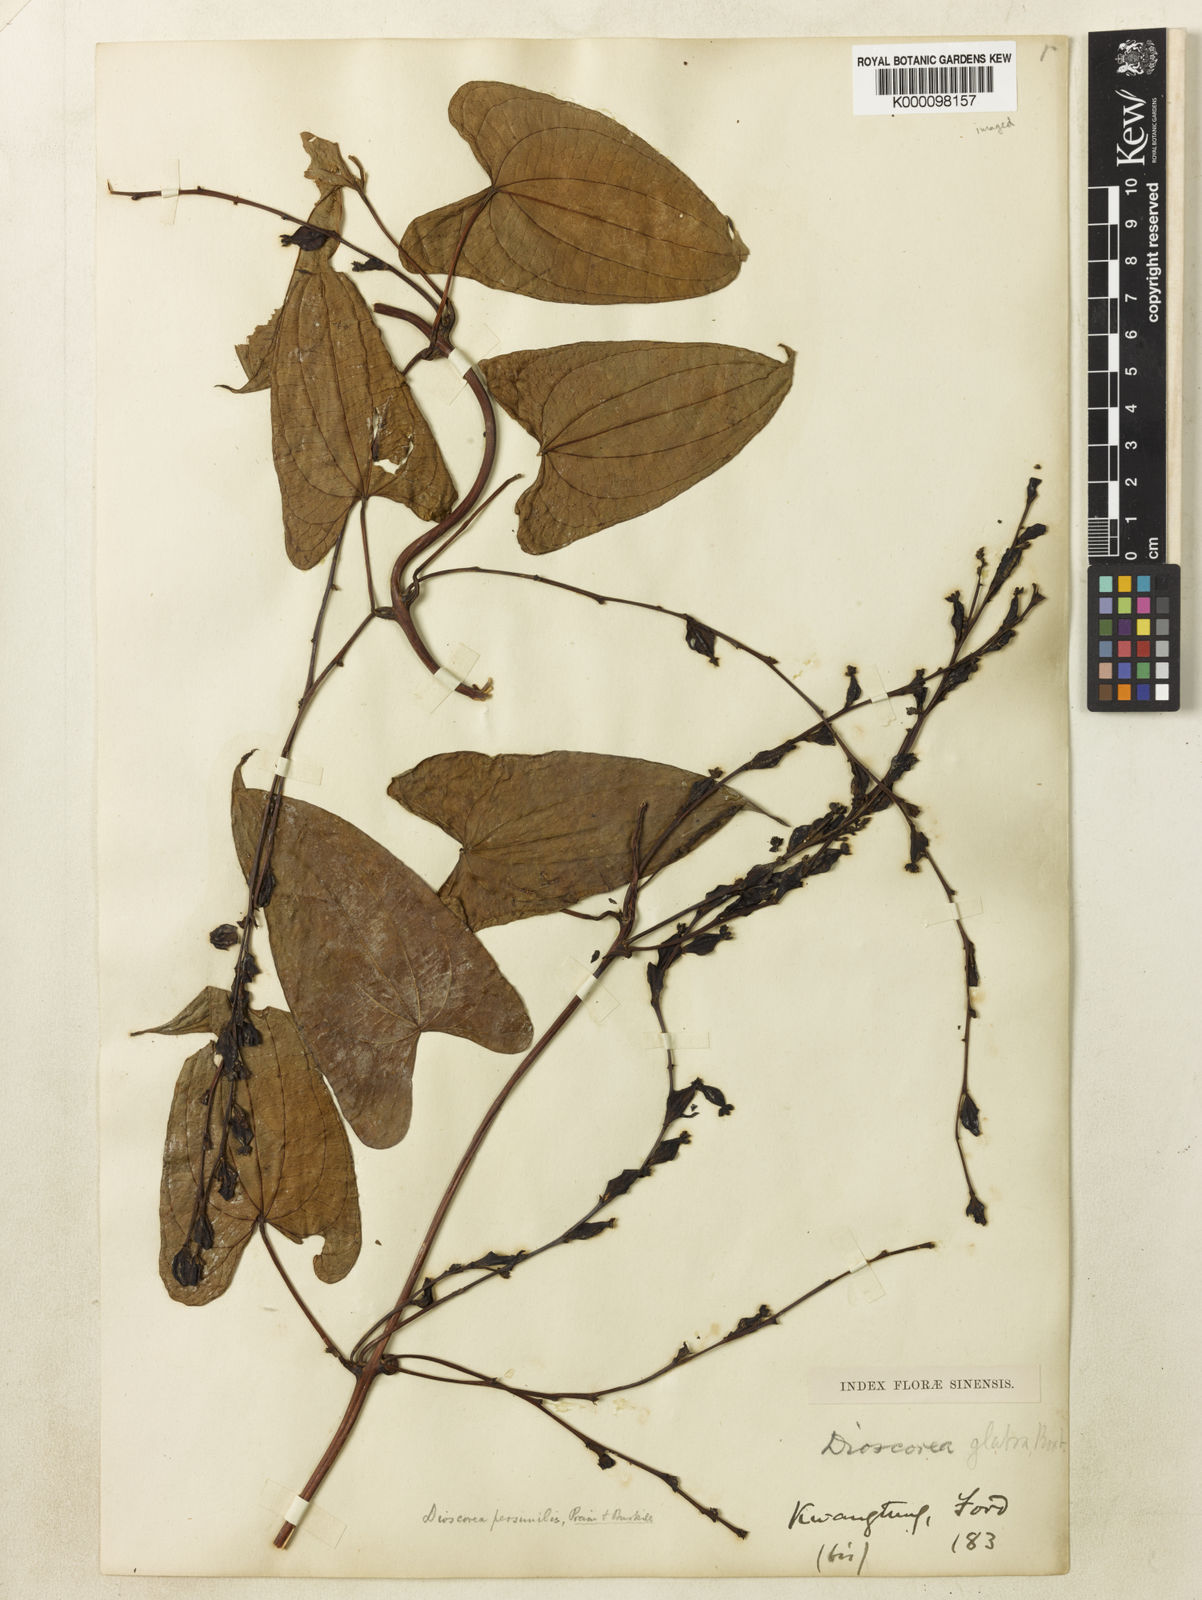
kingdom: Plantae
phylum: Tracheophyta
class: Liliopsida
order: Dioscoreales
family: Dioscoreaceae
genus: Dioscorea
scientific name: Dioscorea hamiltonii
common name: Mountain yam
